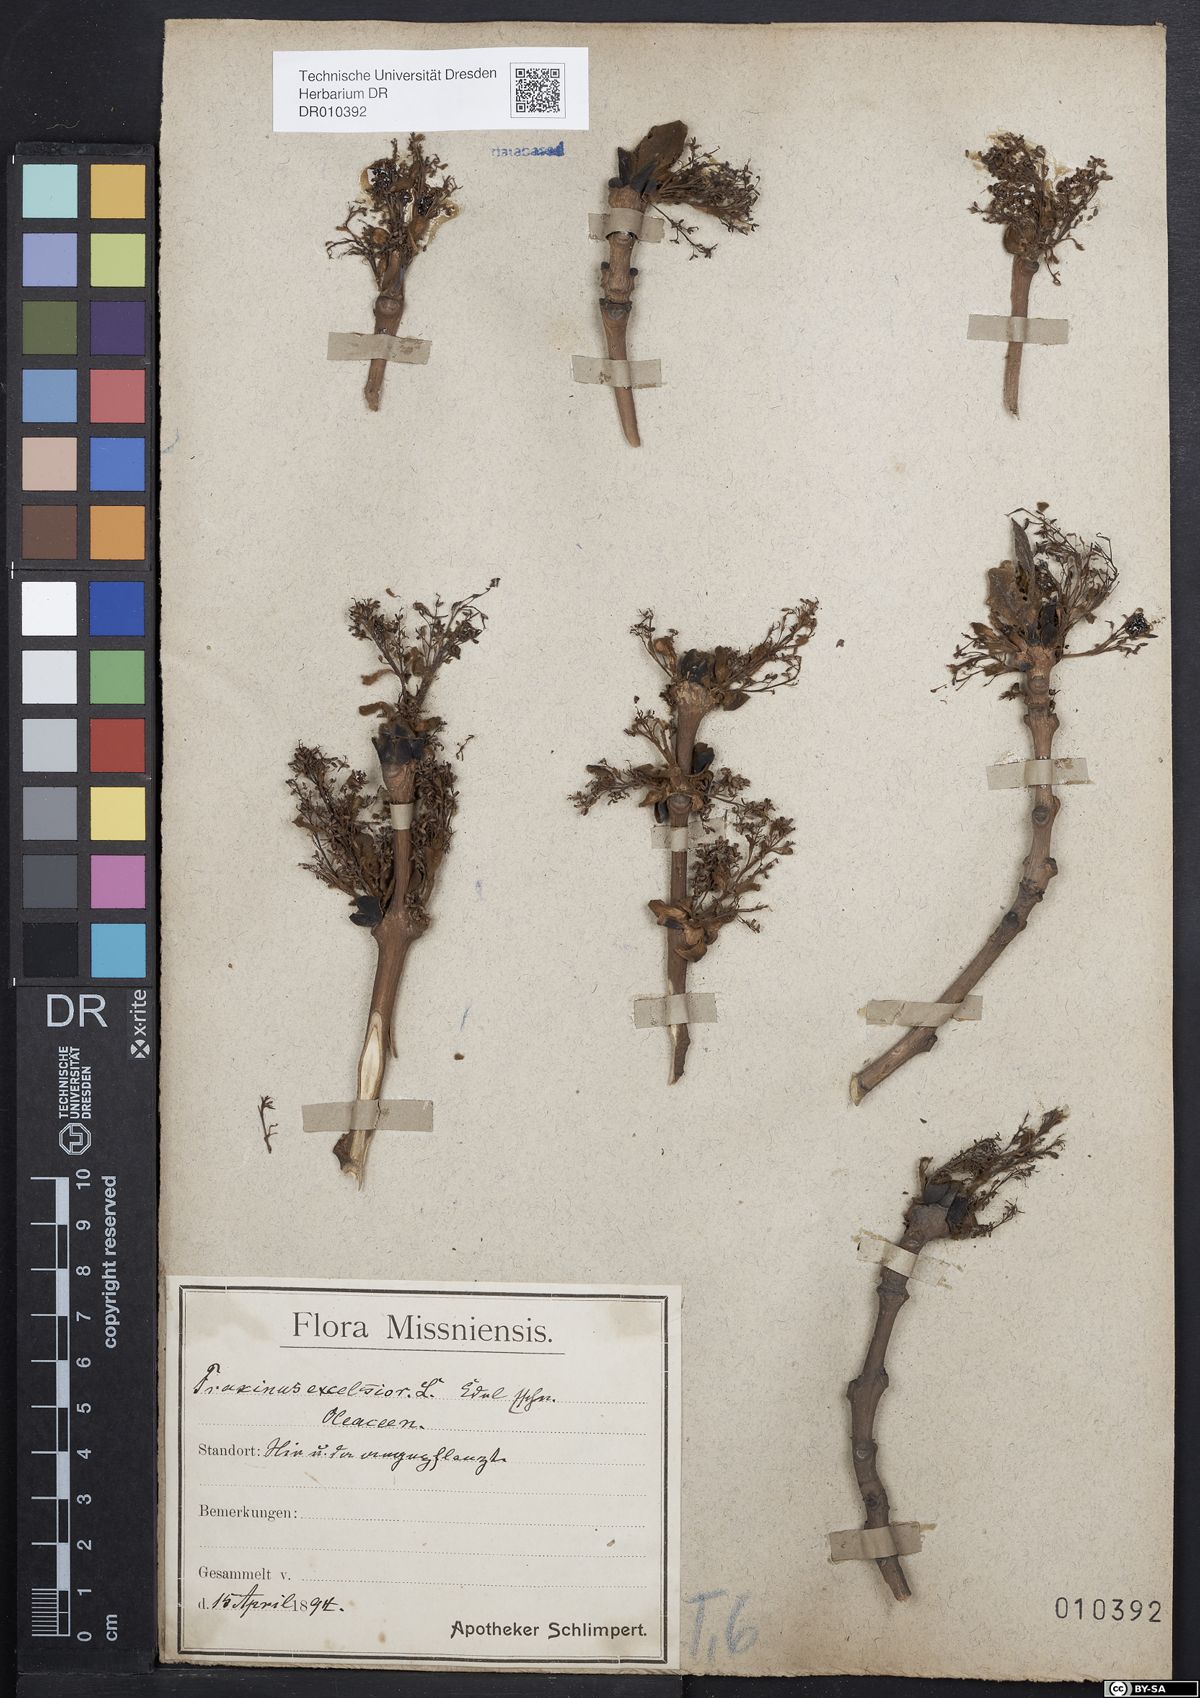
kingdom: Plantae
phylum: Tracheophyta
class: Magnoliopsida
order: Lamiales
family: Oleaceae
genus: Fraxinus
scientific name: Fraxinus excelsior
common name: European ash
